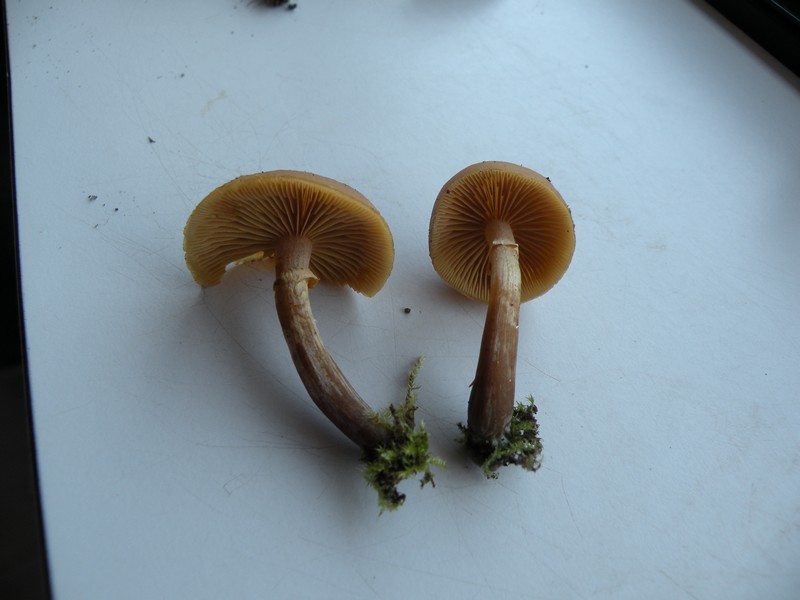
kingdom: Fungi
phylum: Basidiomycota
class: Agaricomycetes
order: Agaricales
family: Hymenogastraceae
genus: Galerina
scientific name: Galerina marginata
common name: randbæltet hjelmhat
